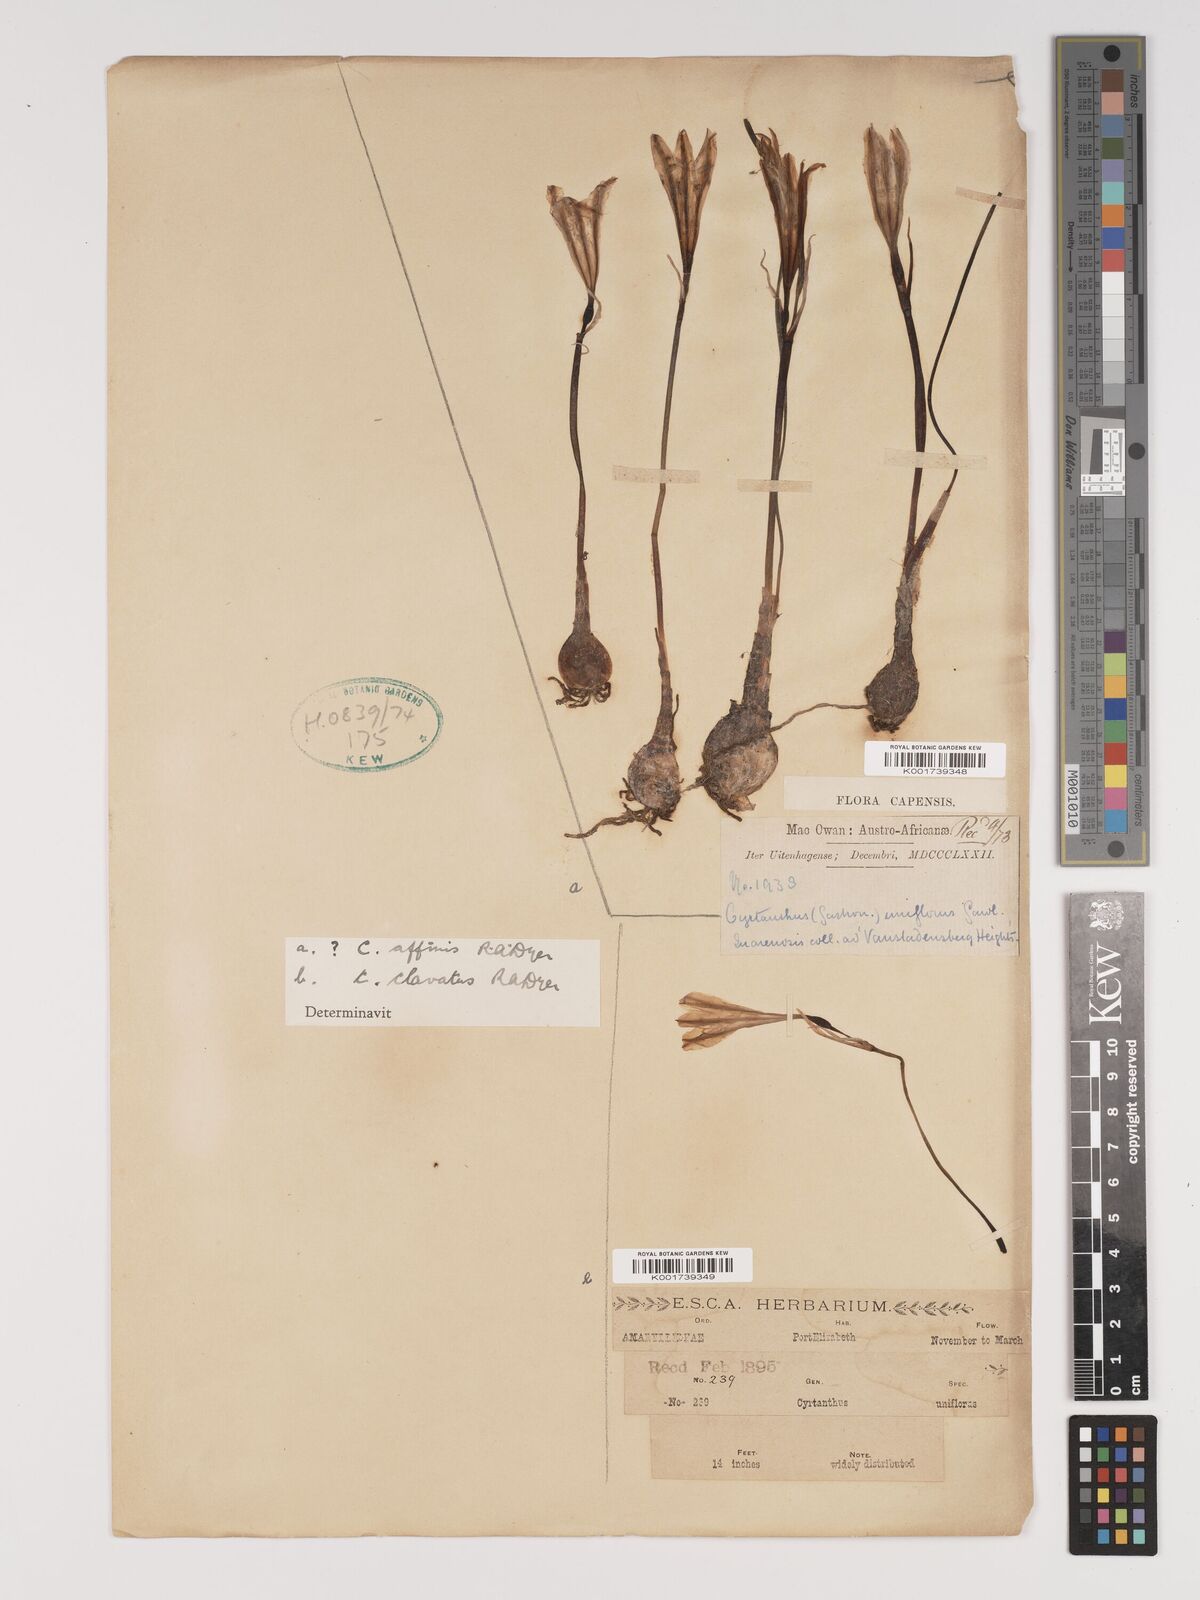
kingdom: Plantae
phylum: Tracheophyta
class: Liliopsida
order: Asparagales
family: Amaryllidaceae
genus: Cyrtanthus
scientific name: Cyrtanthus clavatus
